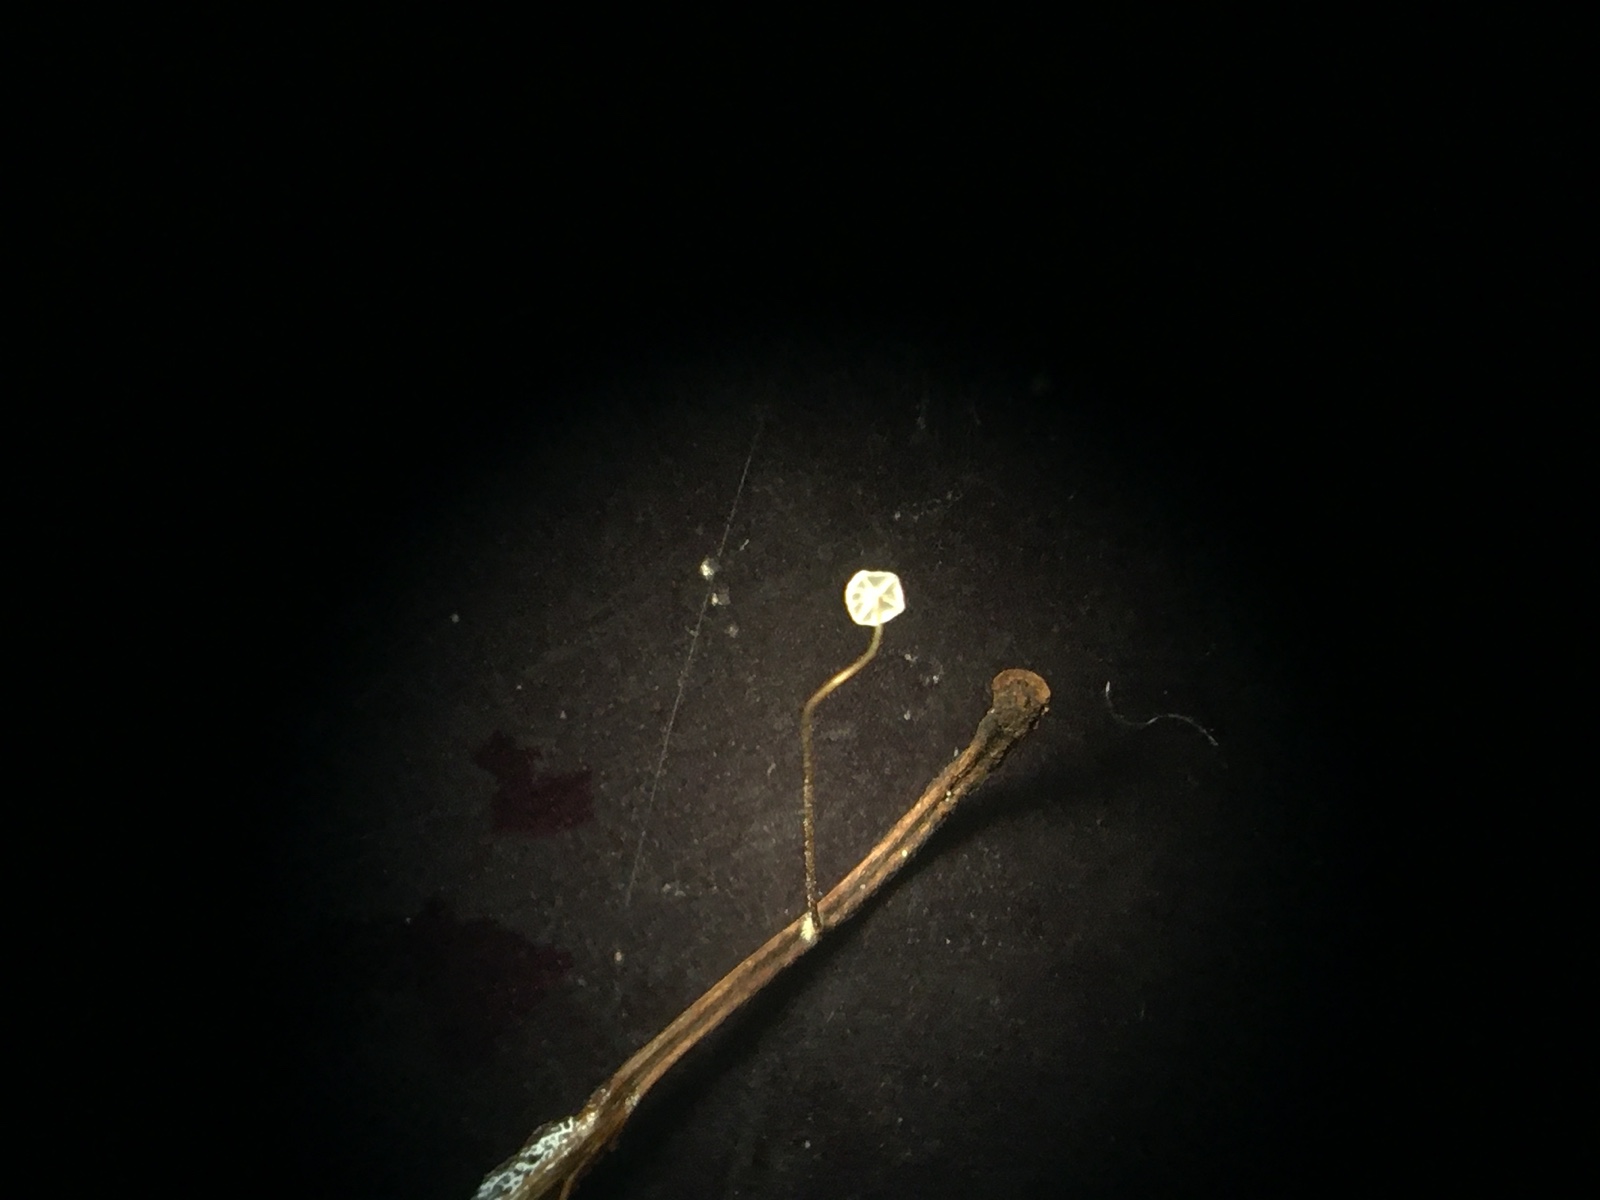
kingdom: Fungi
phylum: Basidiomycota
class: Agaricomycetes
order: Agaricales
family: Physalacriaceae
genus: Rhizomarasmius
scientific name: Rhizomarasmius setosus
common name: bøgeblads-bruskhat
